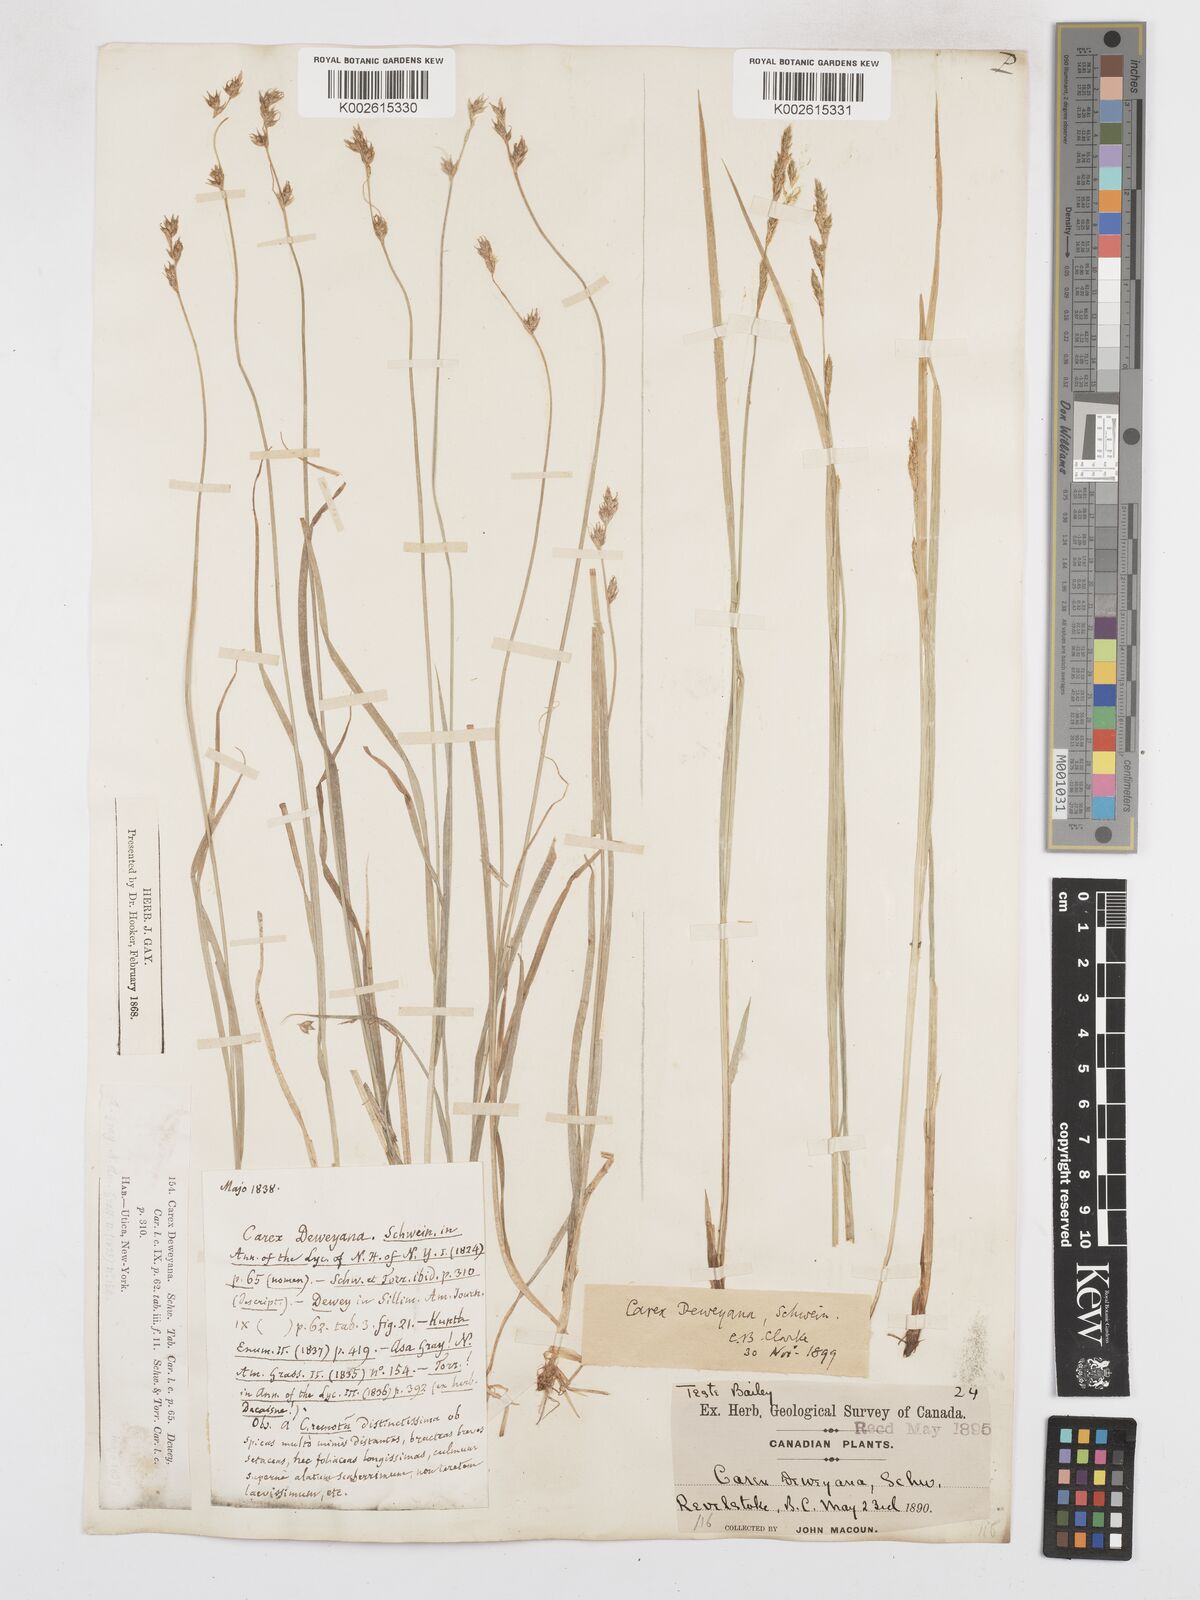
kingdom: Plantae
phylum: Tracheophyta
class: Liliopsida
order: Poales
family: Cyperaceae
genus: Carex
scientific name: Carex deweyana
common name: Dewey's sedge
